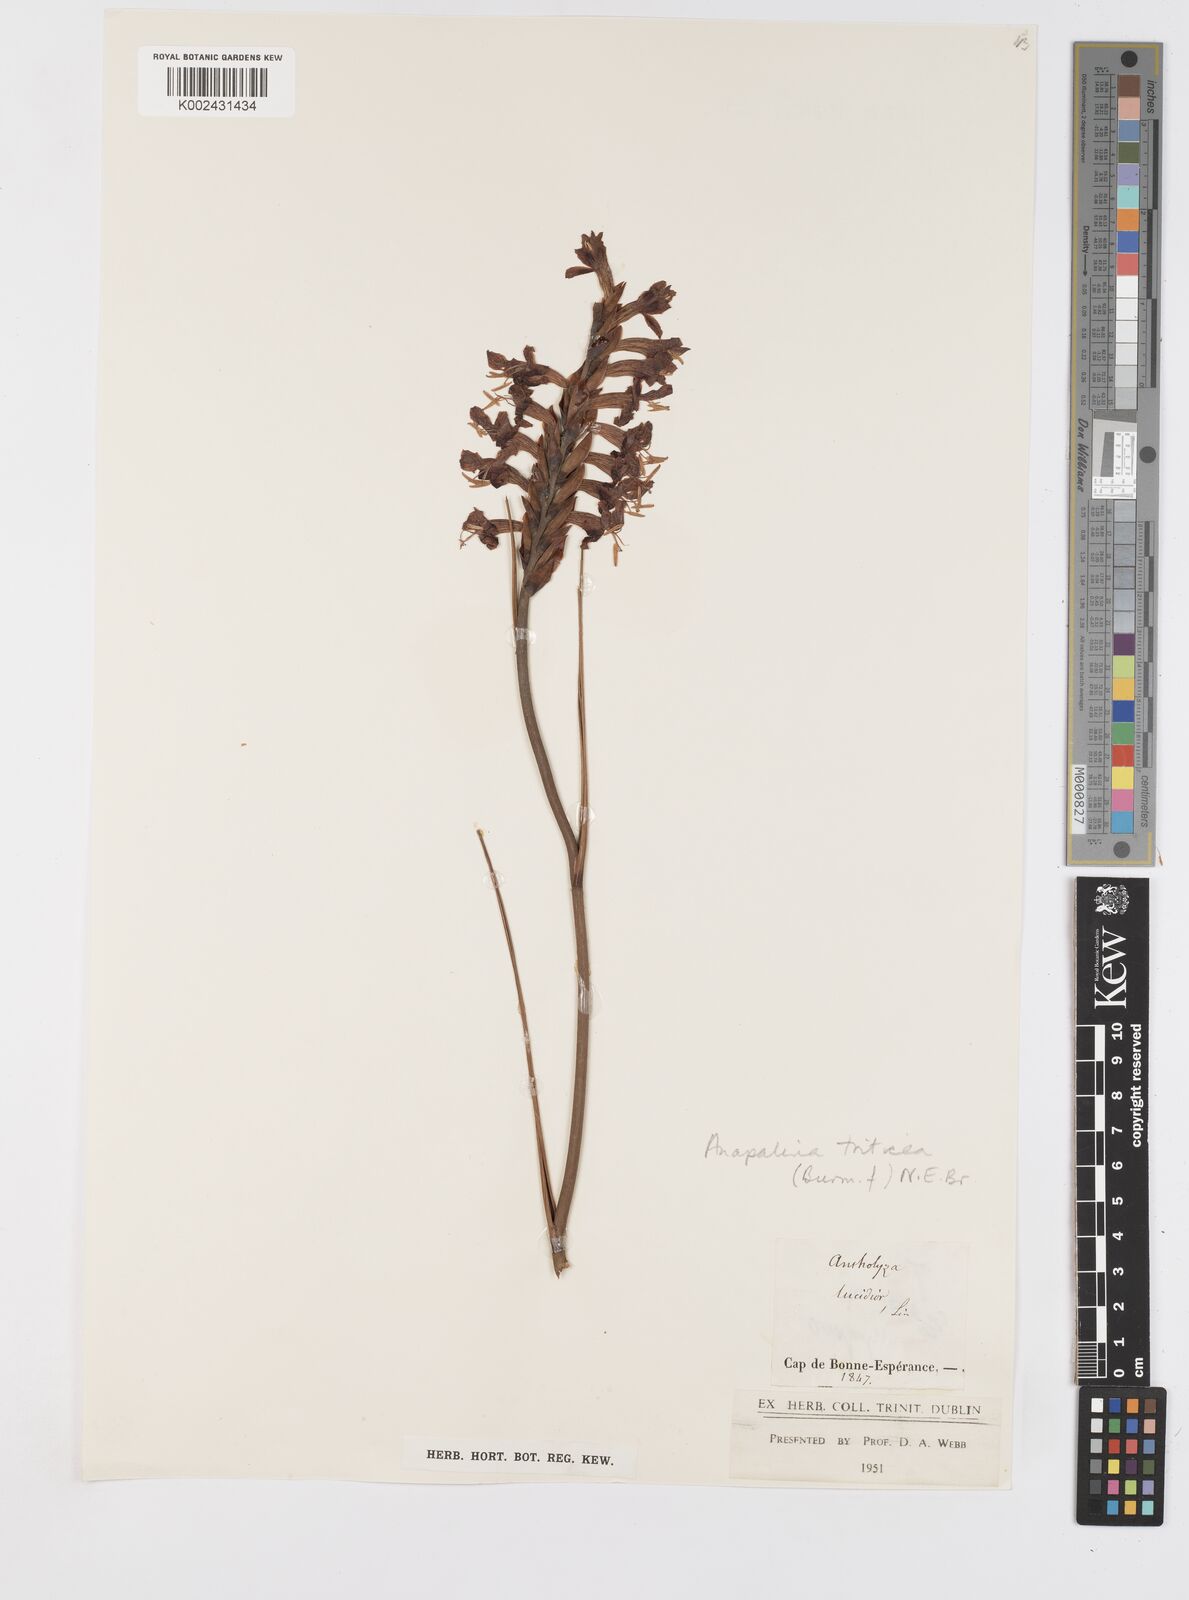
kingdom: Plantae
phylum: Tracheophyta
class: Liliopsida
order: Asparagales
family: Iridaceae
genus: Tritoniopsis
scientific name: Tritoniopsis triticea
